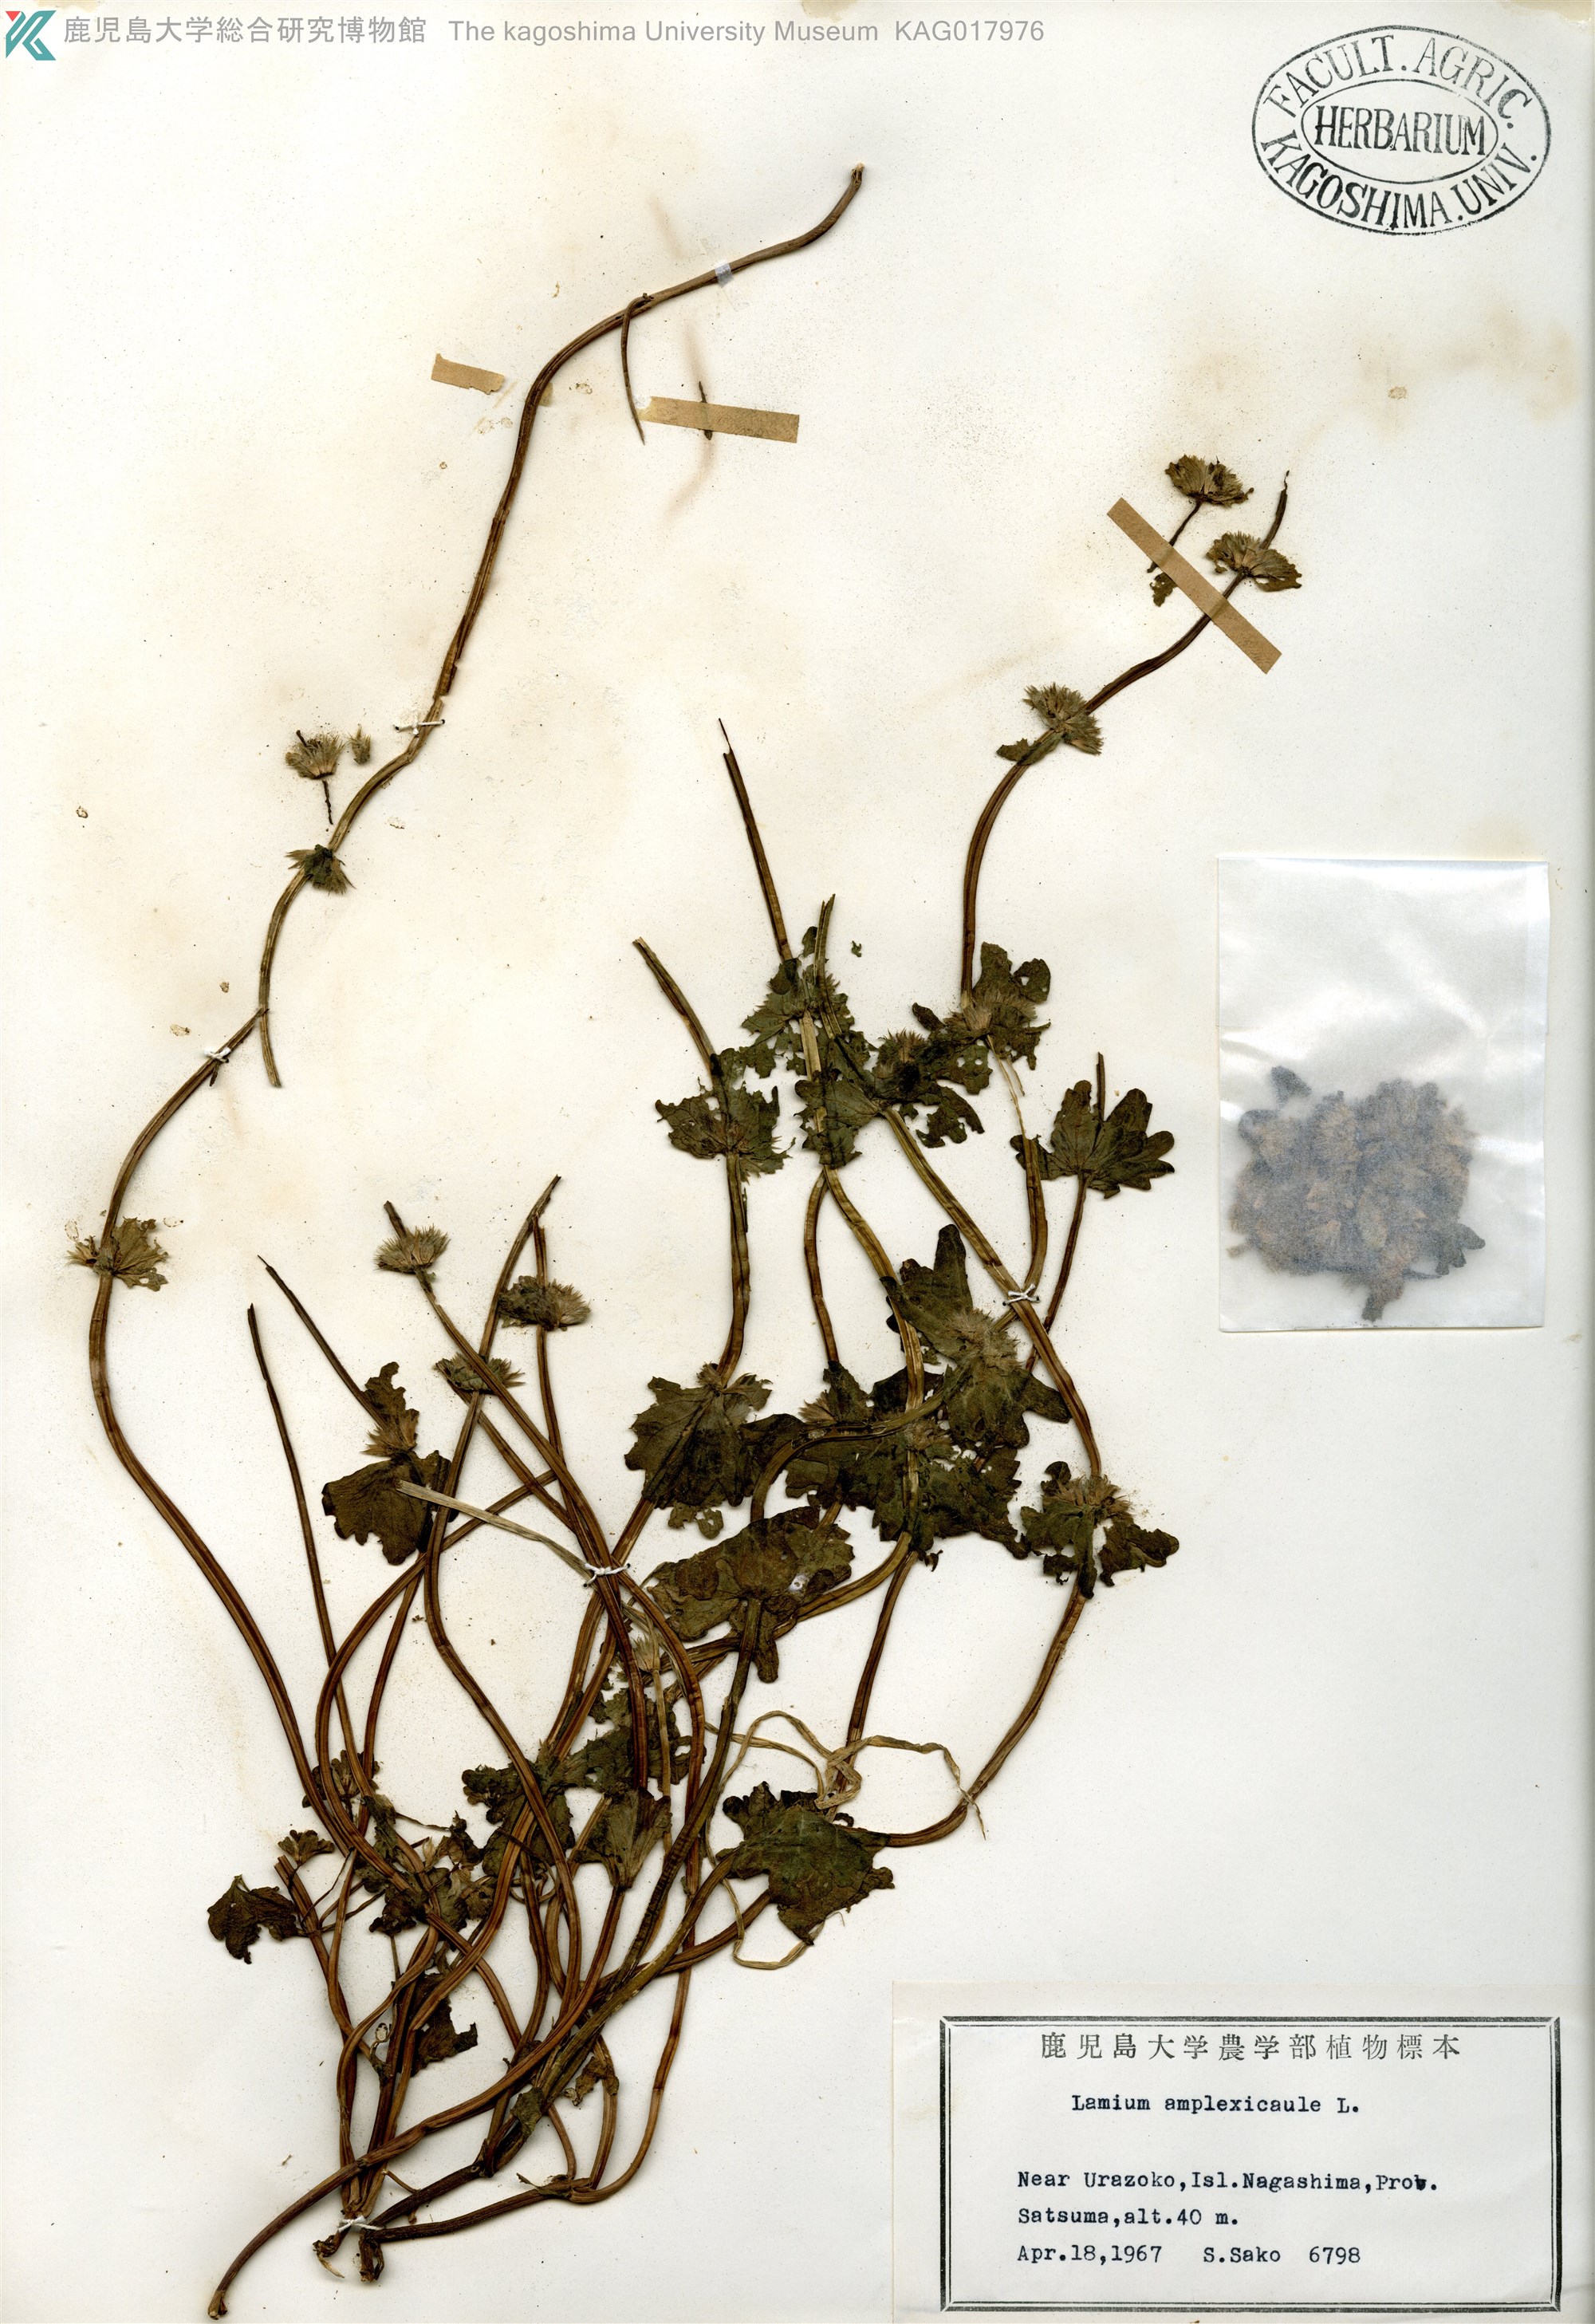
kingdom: Plantae
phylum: Tracheophyta
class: Magnoliopsida
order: Lamiales
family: Lamiaceae
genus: Lamium
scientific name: Lamium amplexicaule
